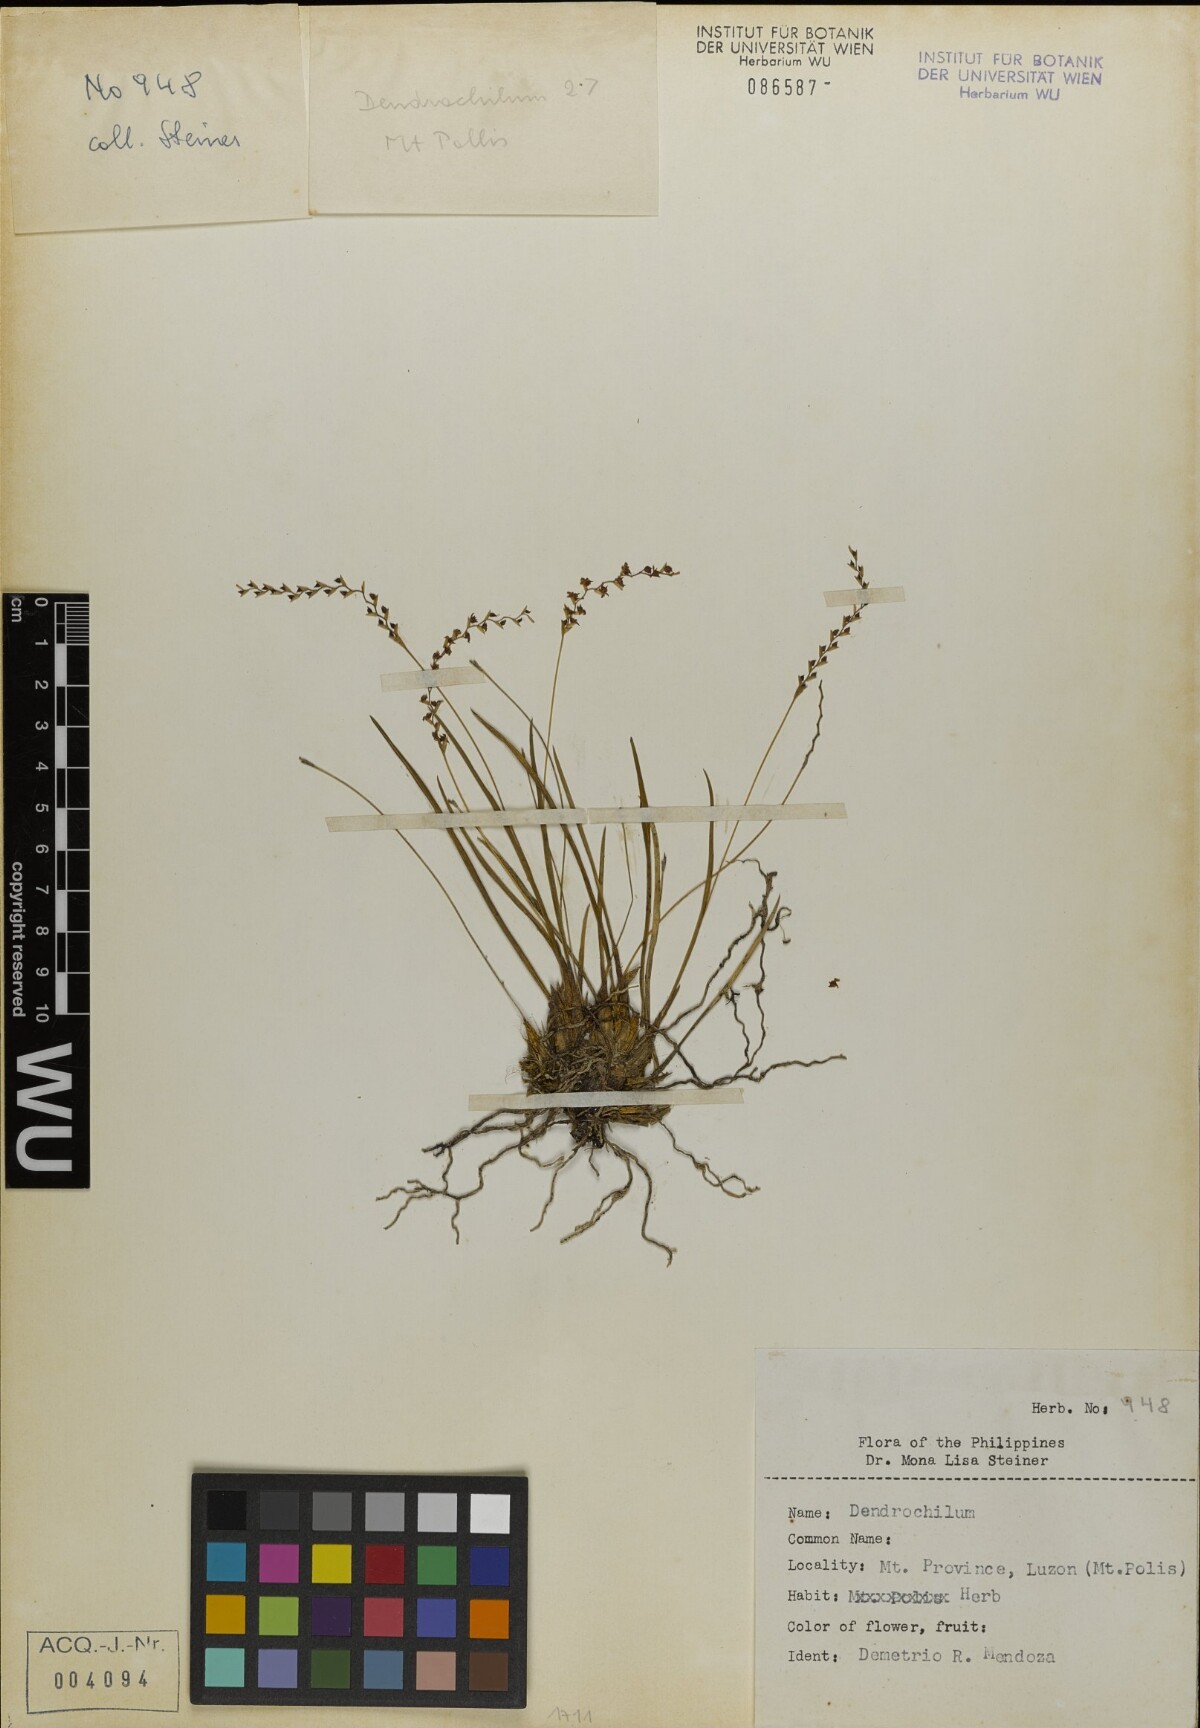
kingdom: Plantae
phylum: Tracheophyta
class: Liliopsida
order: Asparagales
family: Orchidaceae
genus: Coelogyne
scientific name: Coelogyne
